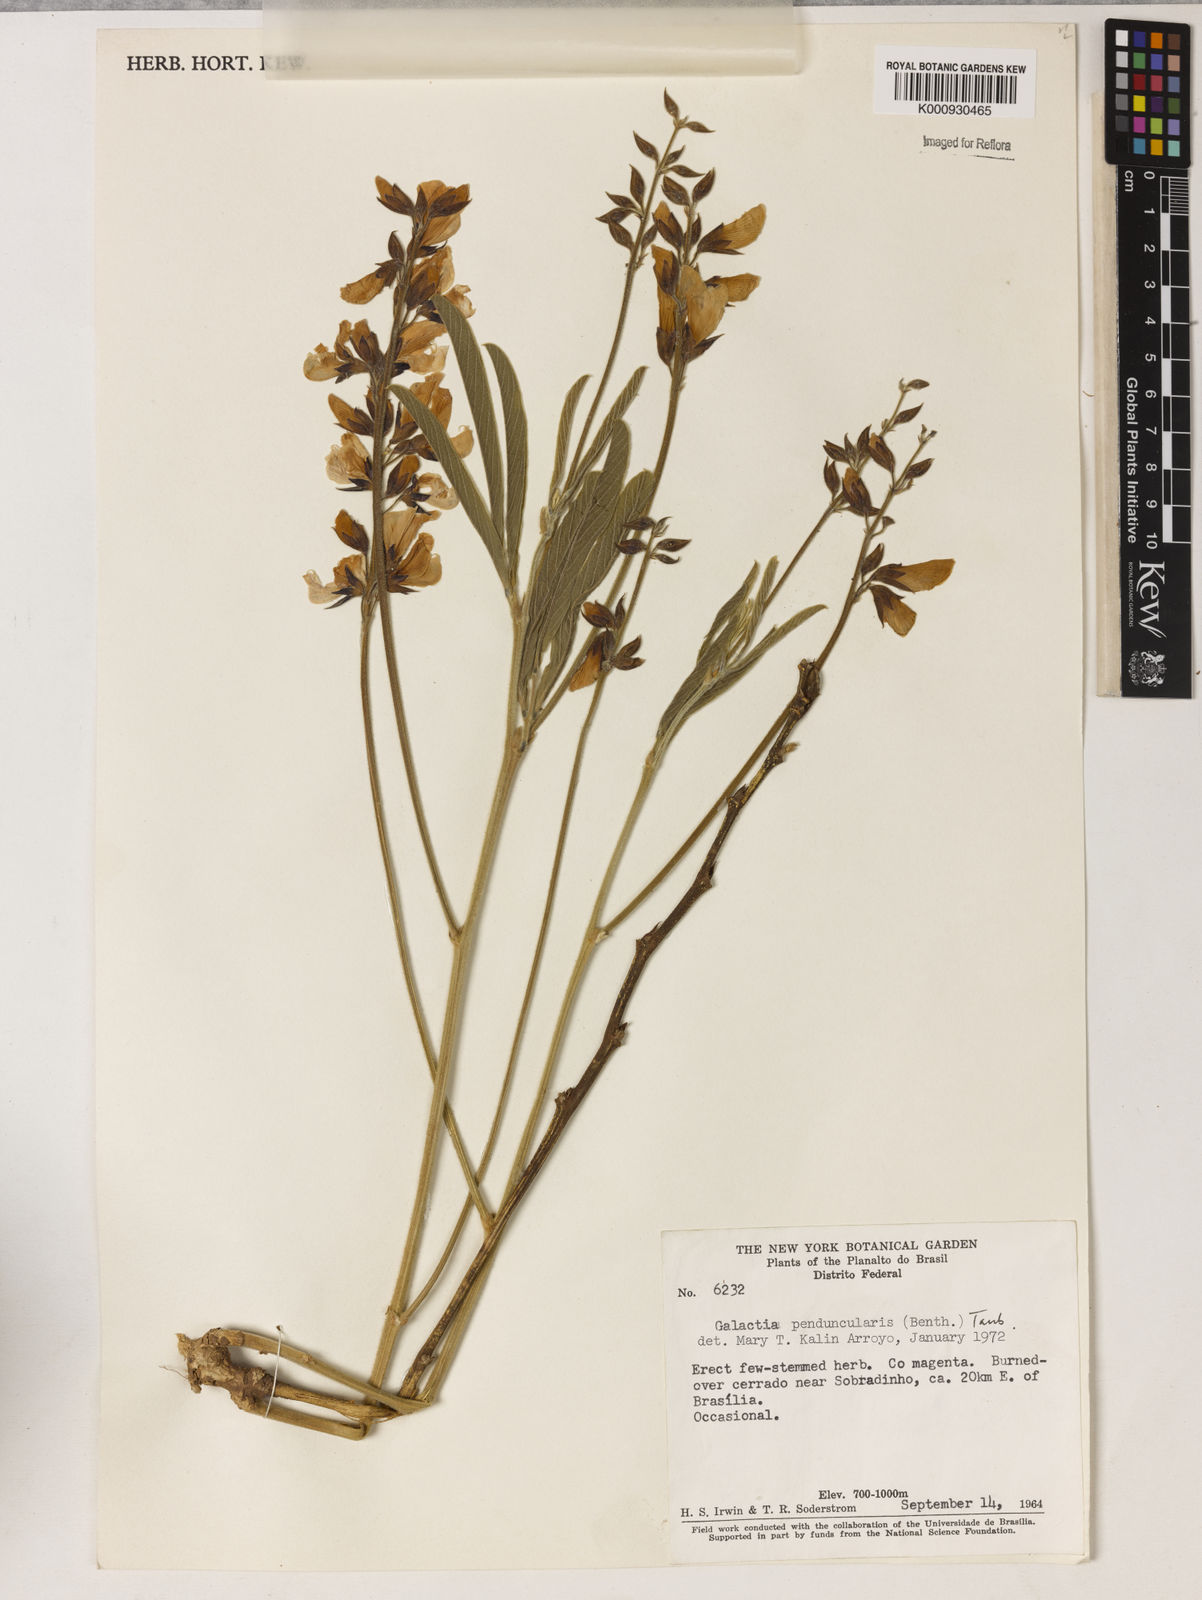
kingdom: Plantae
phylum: Tracheophyta
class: Magnoliopsida
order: Fabales
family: Fabaceae
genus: Galactia
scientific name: Galactia
